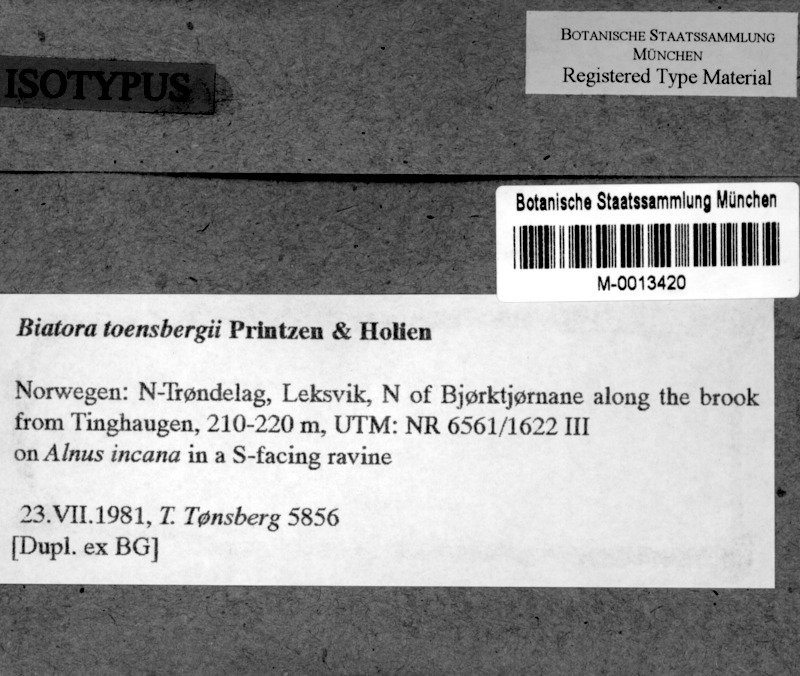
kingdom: Fungi
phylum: Ascomycota
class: Lecanoromycetes
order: Lecanorales
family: Ramalinaceae
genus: Biatora
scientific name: Biatora toensbergii
